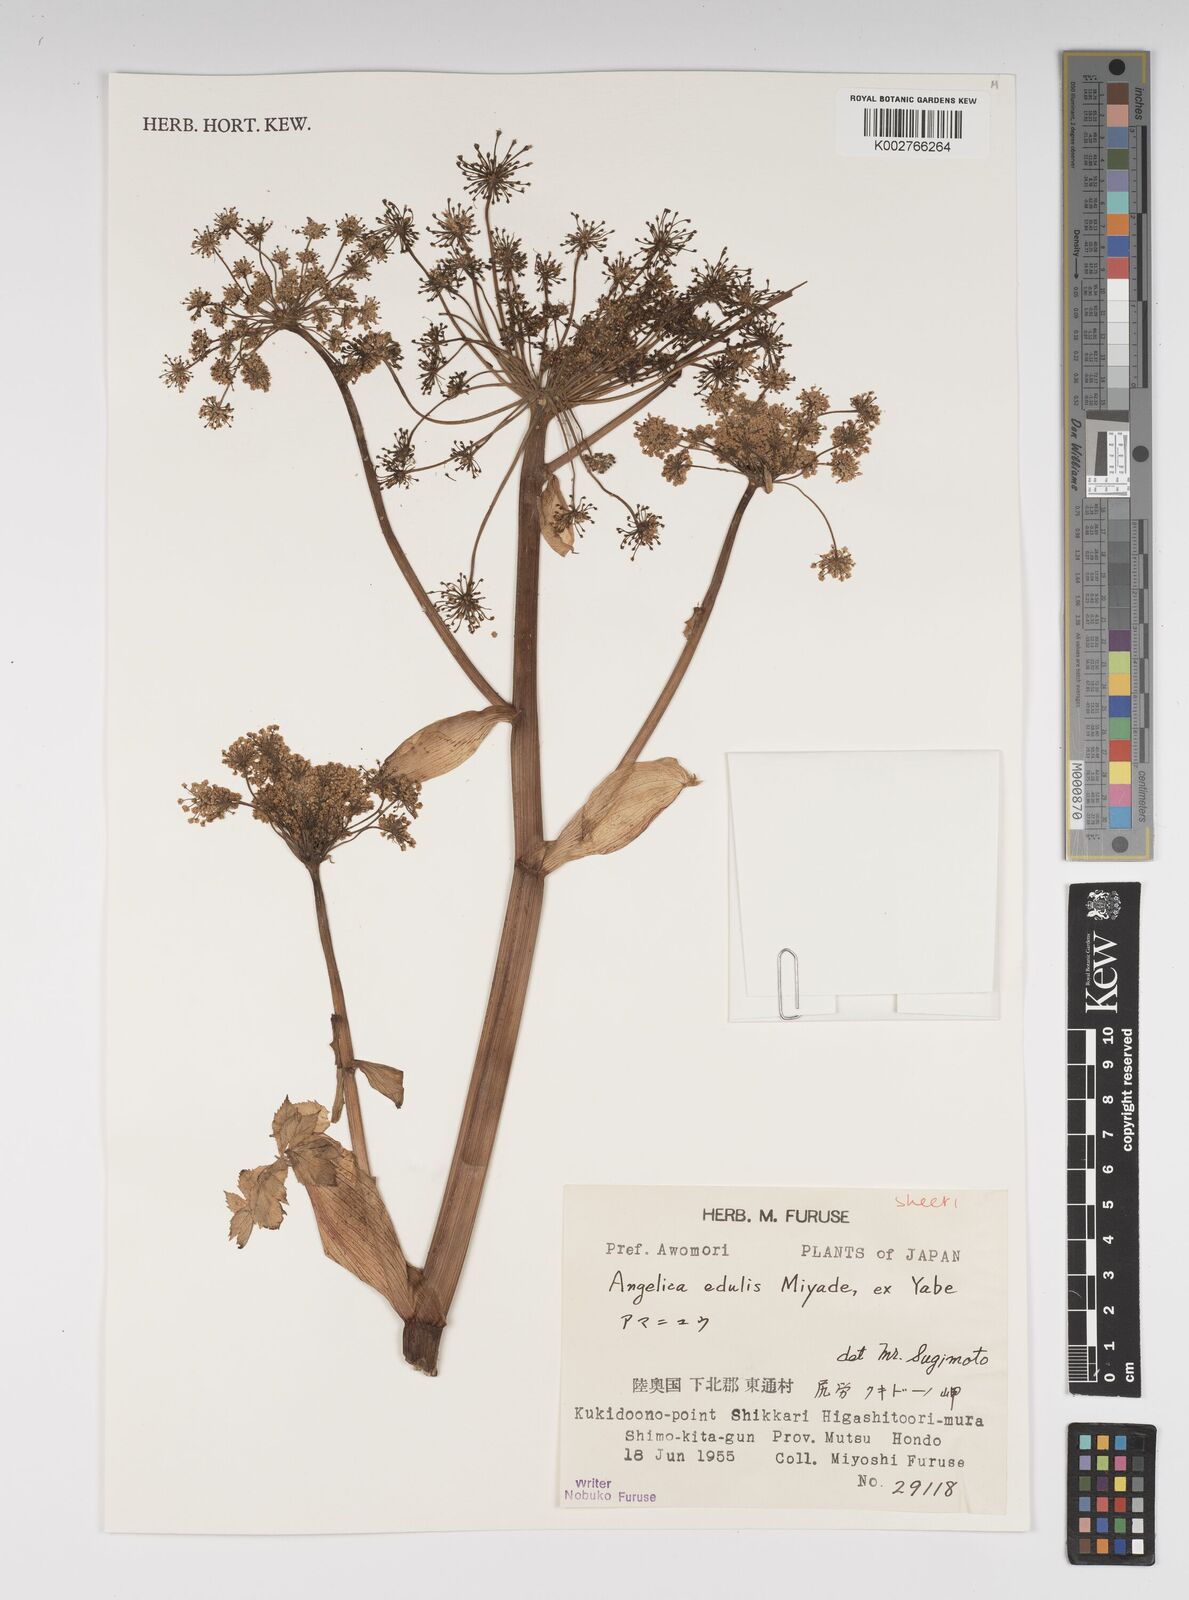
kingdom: Plantae
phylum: Tracheophyta
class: Magnoliopsida
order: Apiales
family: Apiaceae
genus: Angelica
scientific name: Angelica edulis
